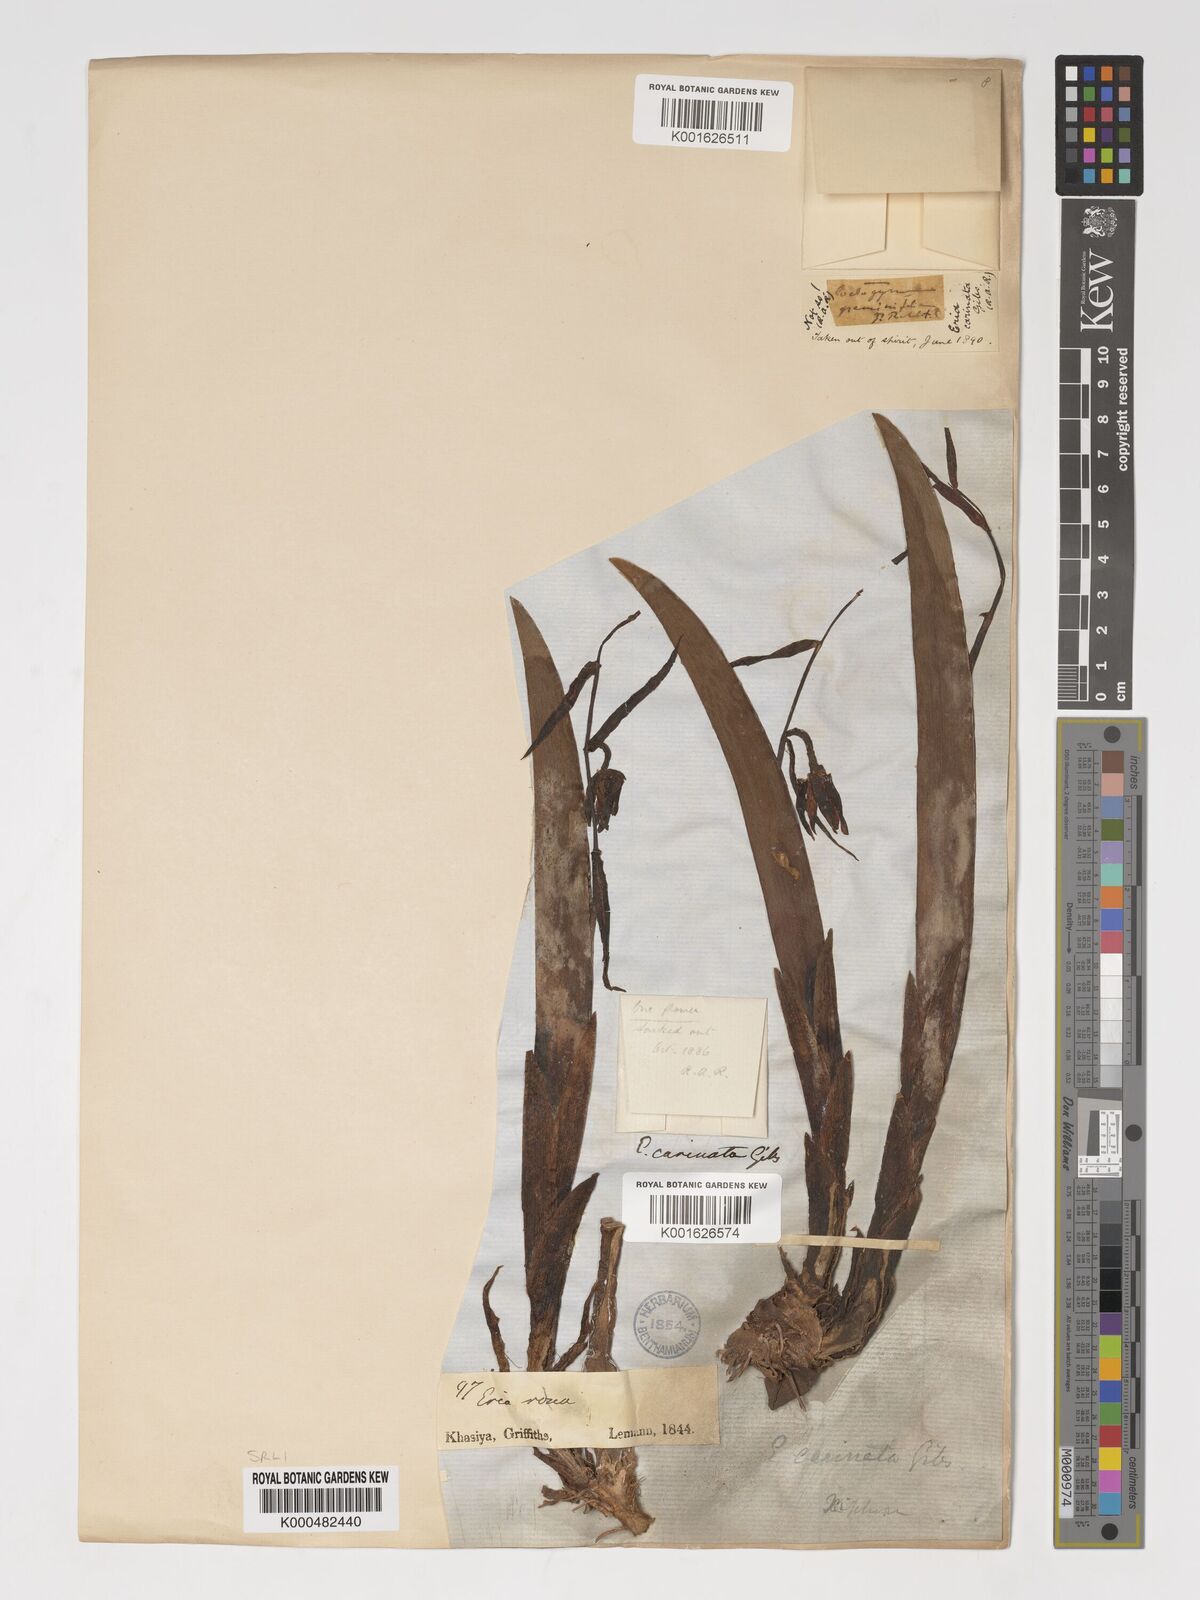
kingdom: Plantae
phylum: Tracheophyta
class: Liliopsida
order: Asparagales
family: Orchidaceae
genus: Eria
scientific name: Eria
